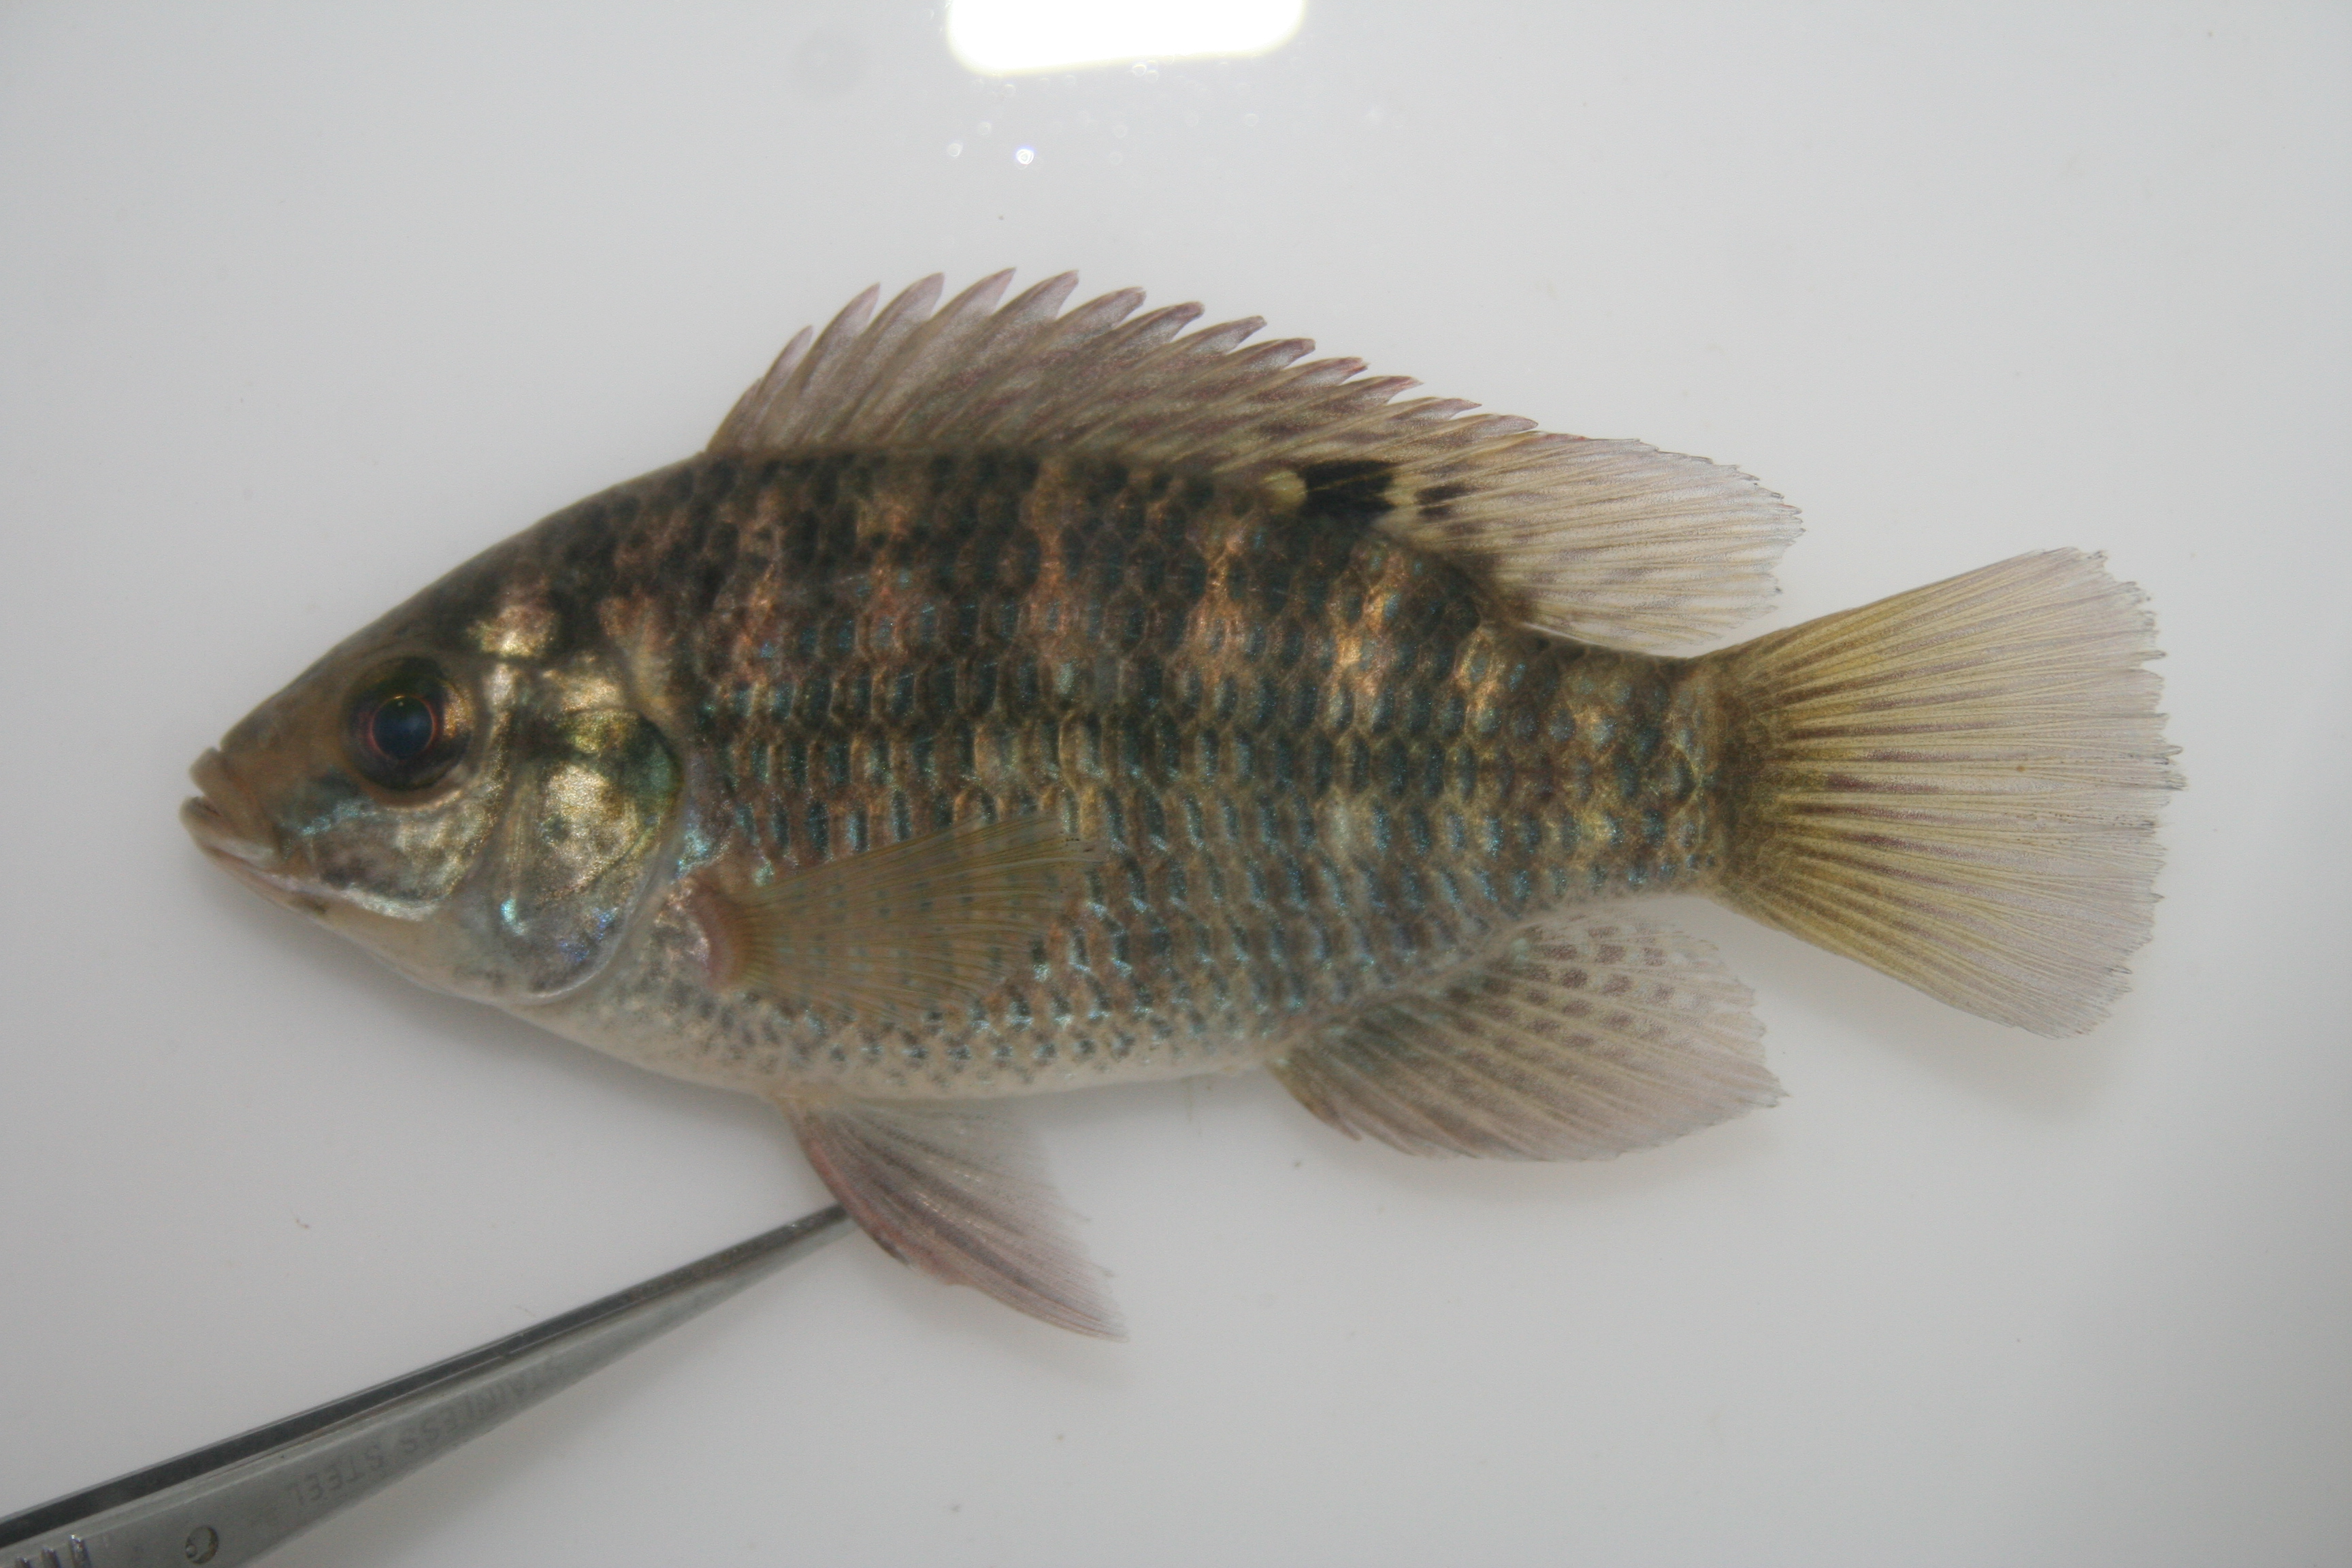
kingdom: Animalia
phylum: Chordata
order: Perciformes
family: Cichlidae
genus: Tilapia
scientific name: Tilapia sparrmanii
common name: Banded tilapia
